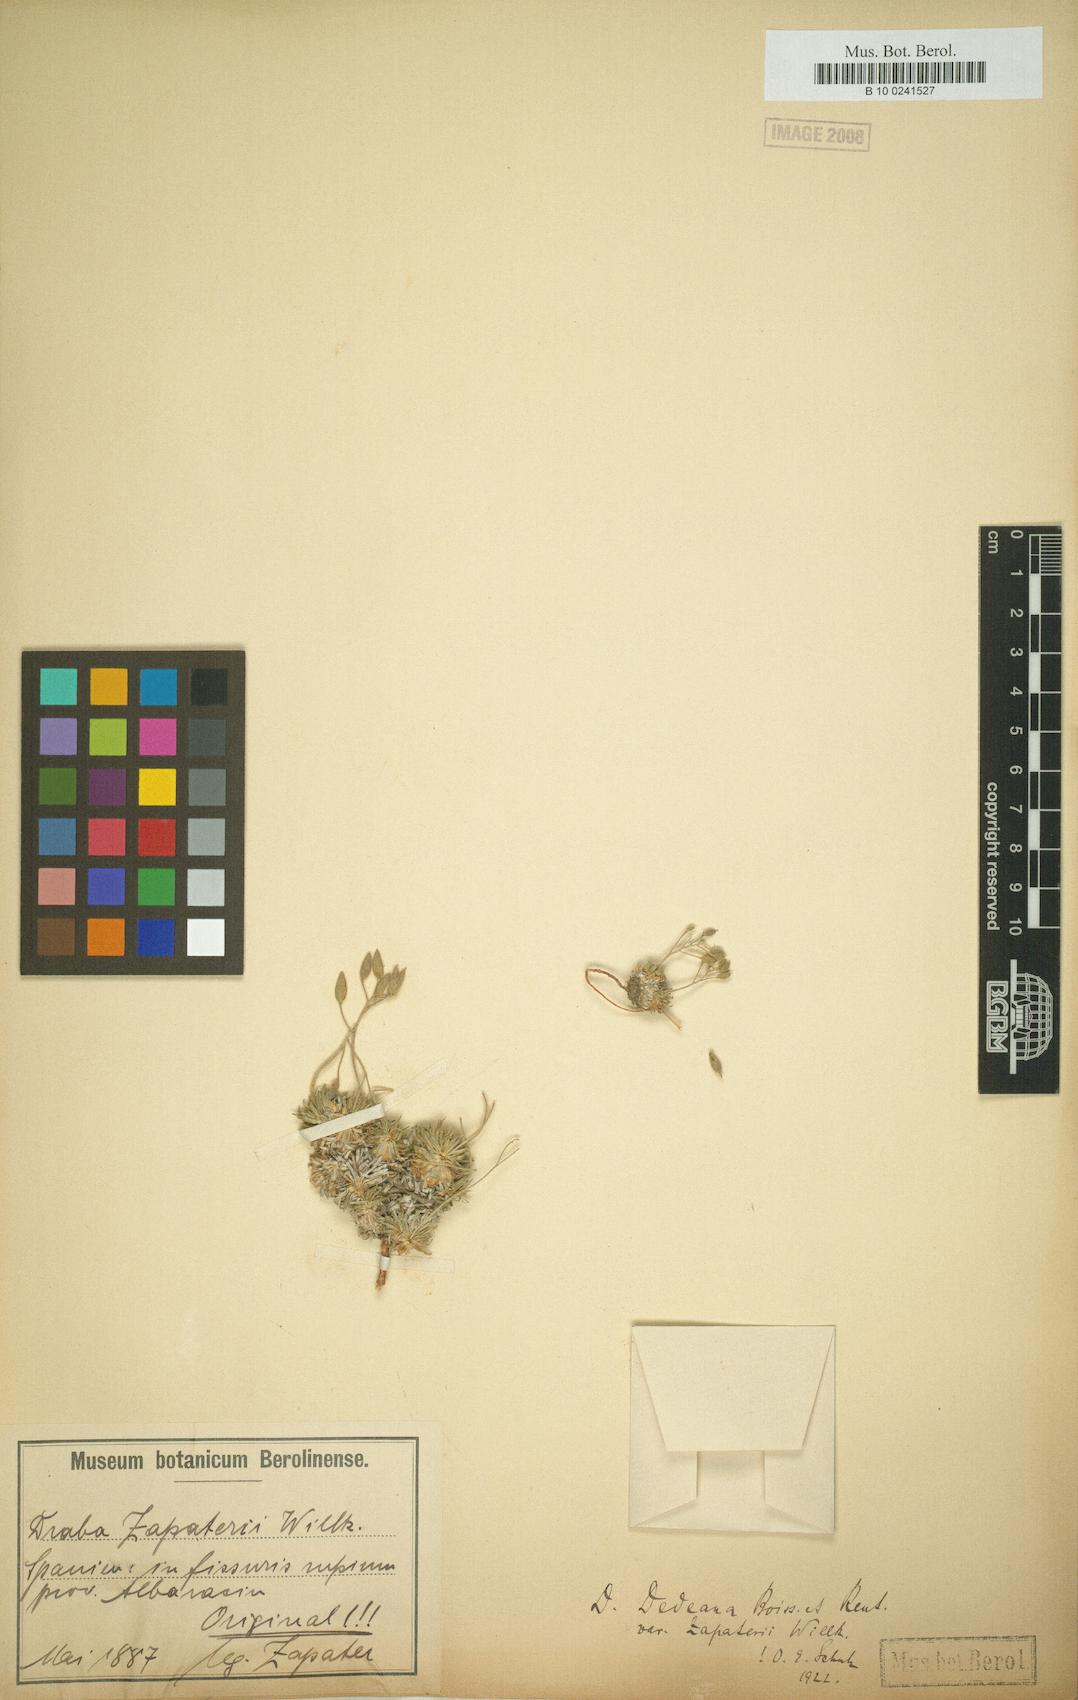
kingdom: Plantae
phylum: Tracheophyta
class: Magnoliopsida
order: Brassicales
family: Brassicaceae
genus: Draba
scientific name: Draba dedeana
